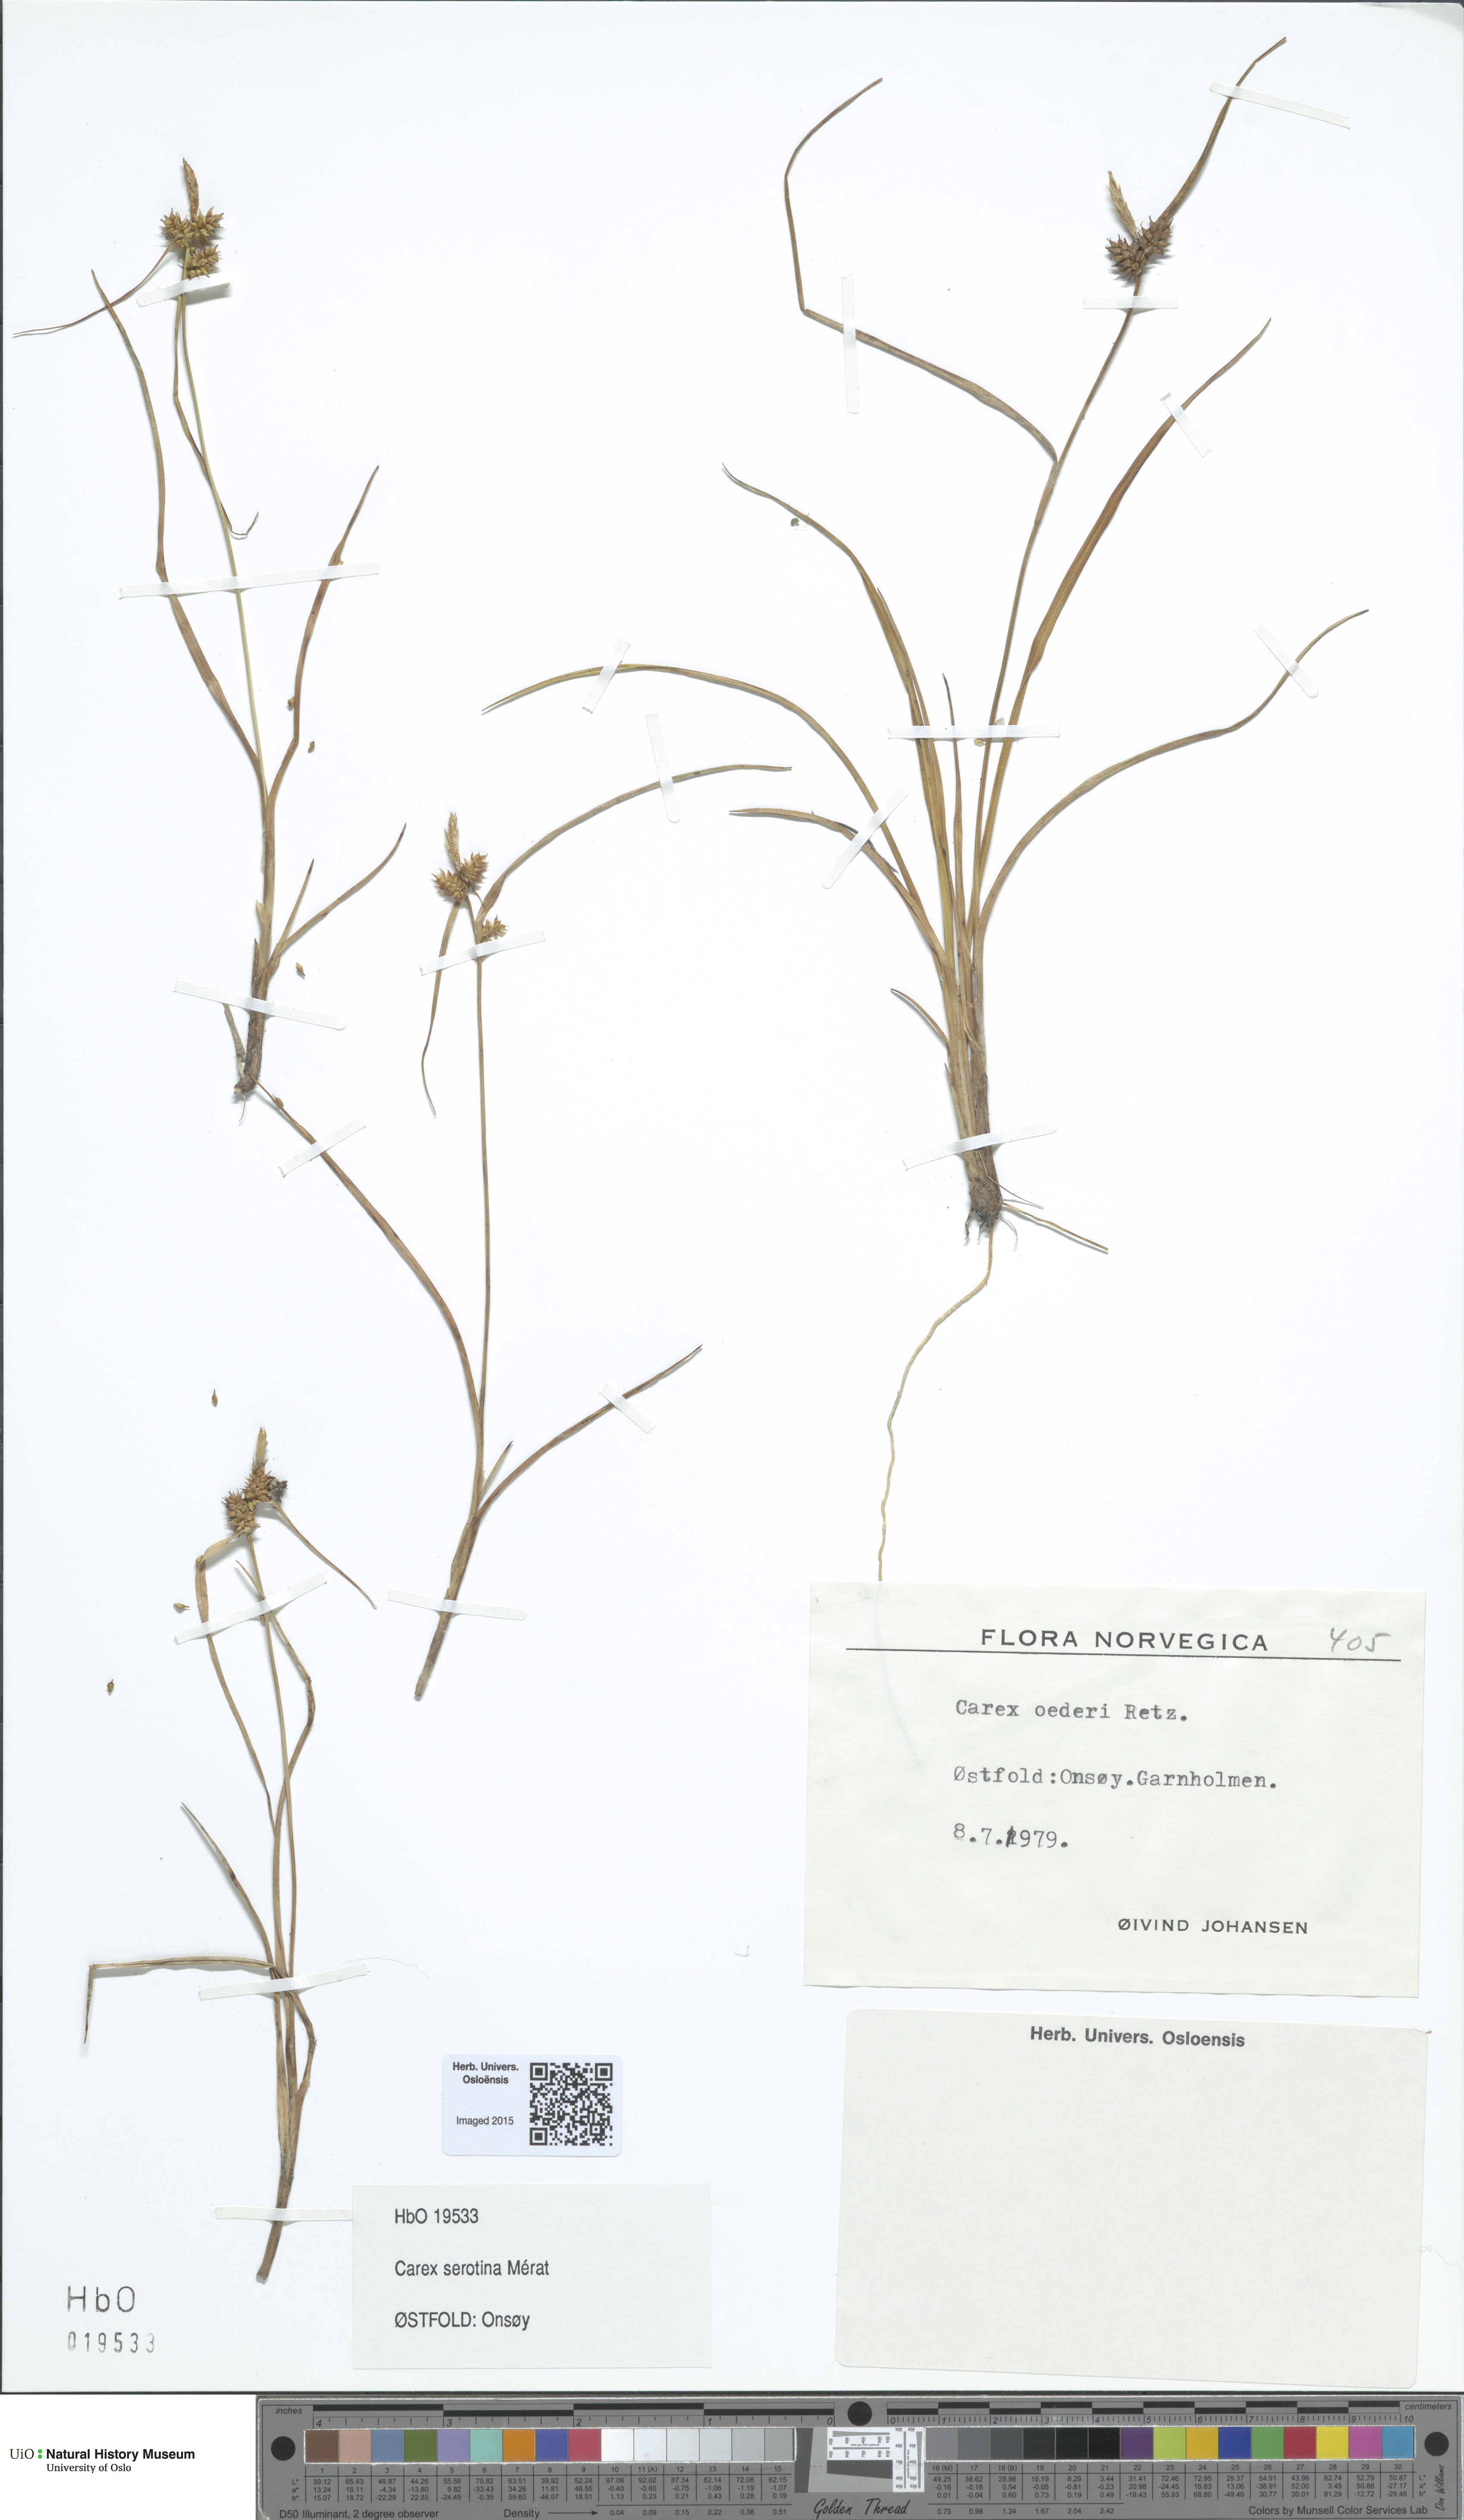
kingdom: Plantae
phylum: Tracheophyta
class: Liliopsida
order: Poales
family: Cyperaceae
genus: Carex
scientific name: Carex oederi
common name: Common & small-fruited yellow-sedge
